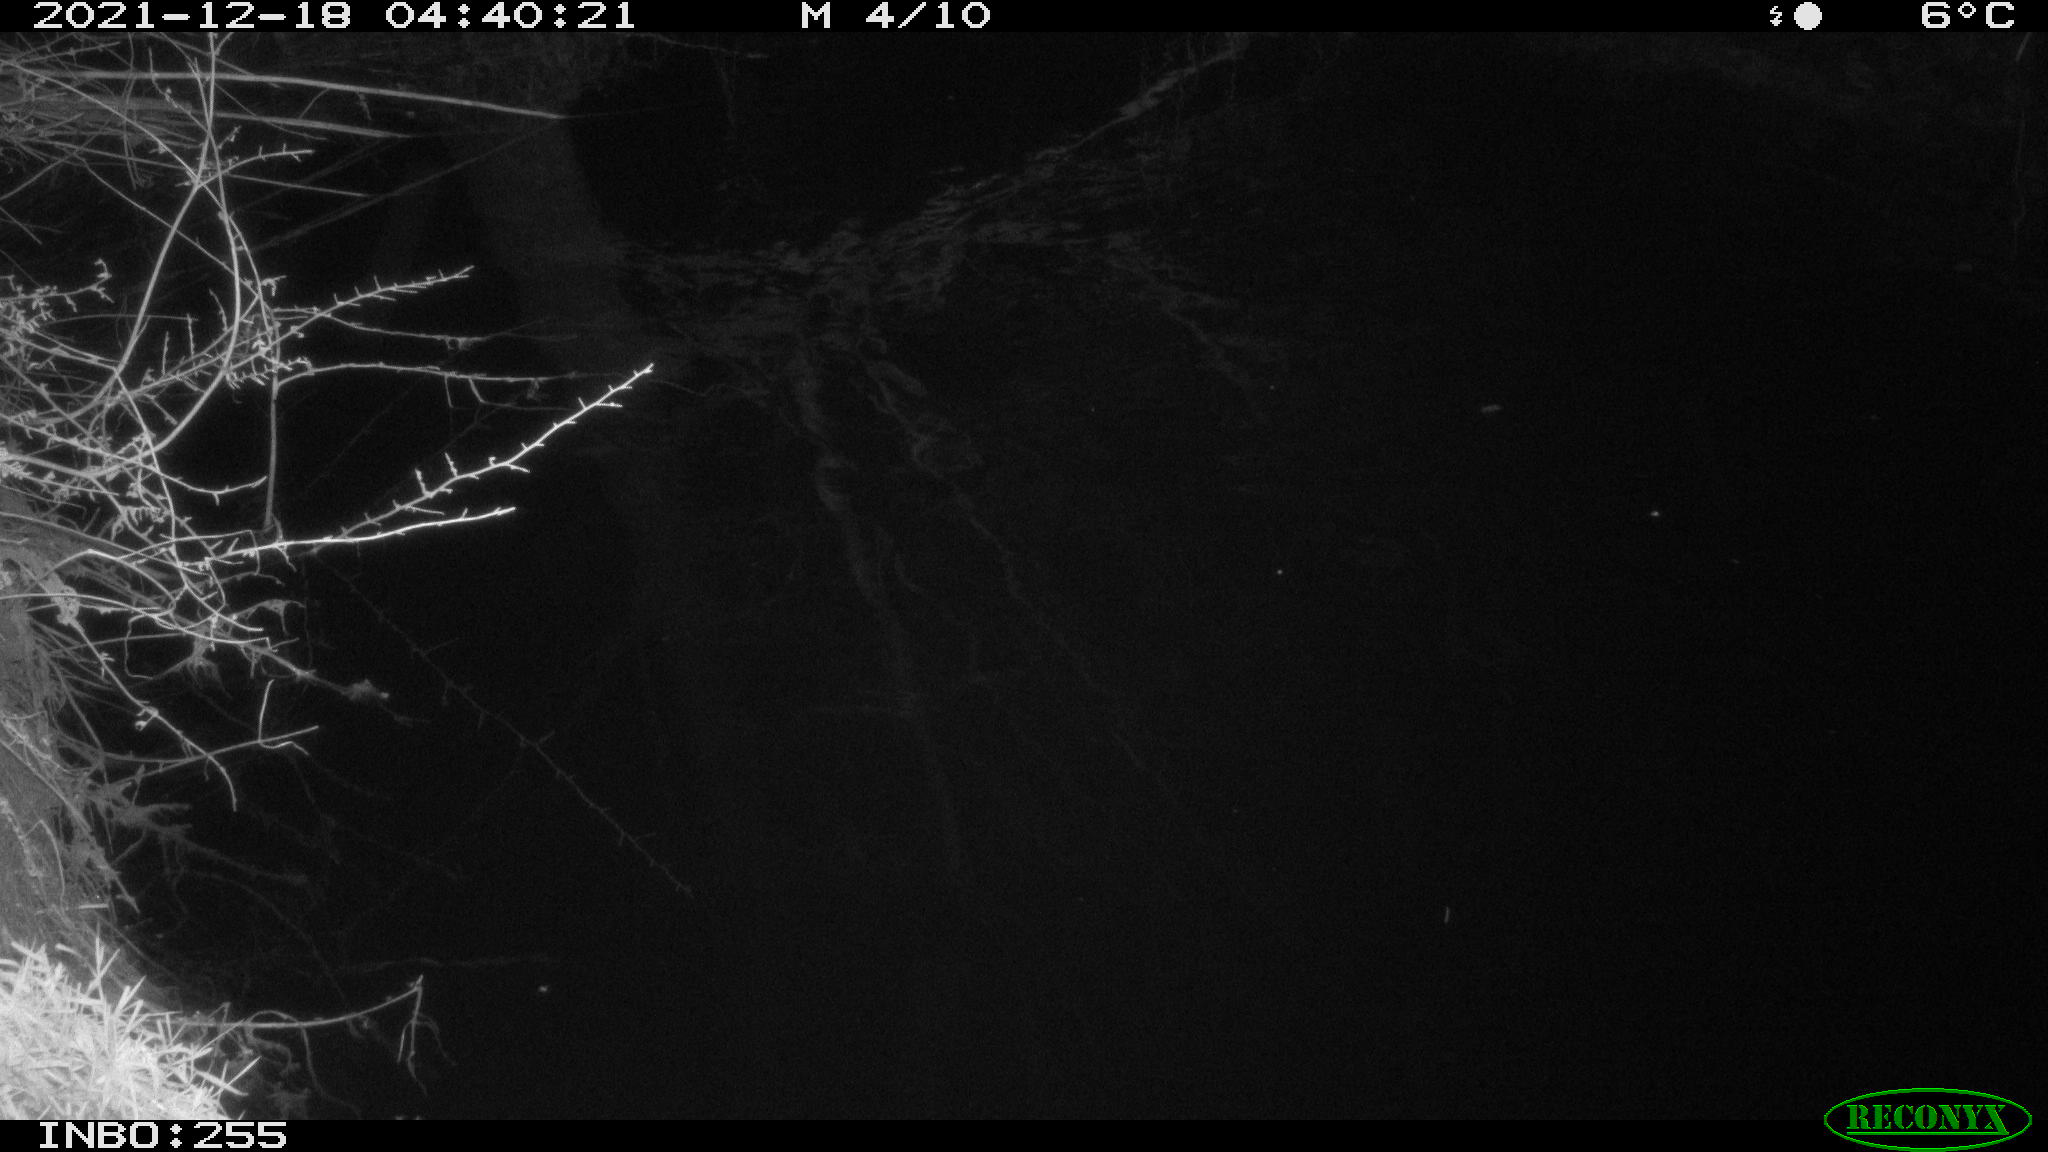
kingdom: Animalia
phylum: Chordata
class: Mammalia
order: Rodentia
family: Muridae
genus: Rattus
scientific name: Rattus norvegicus
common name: Brown rat
